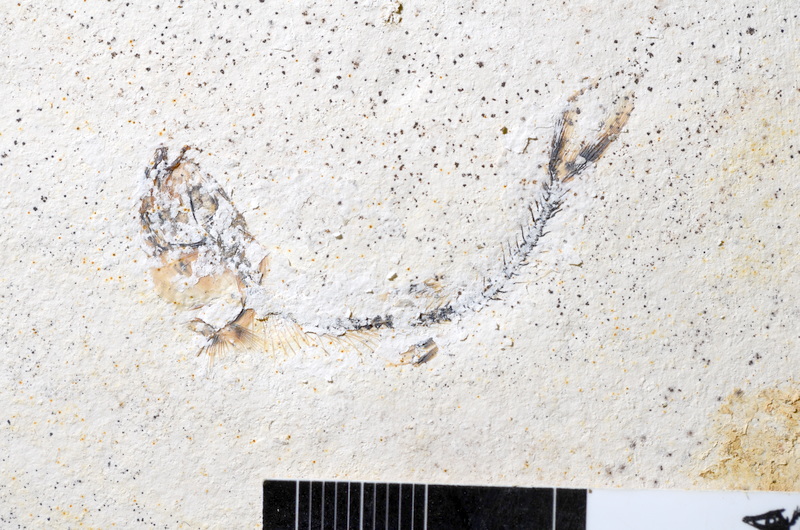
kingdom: Animalia
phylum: Chordata
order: Salmoniformes
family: Orthogonikleithridae
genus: Orthogonikleithrus
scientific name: Orthogonikleithrus hoelli
